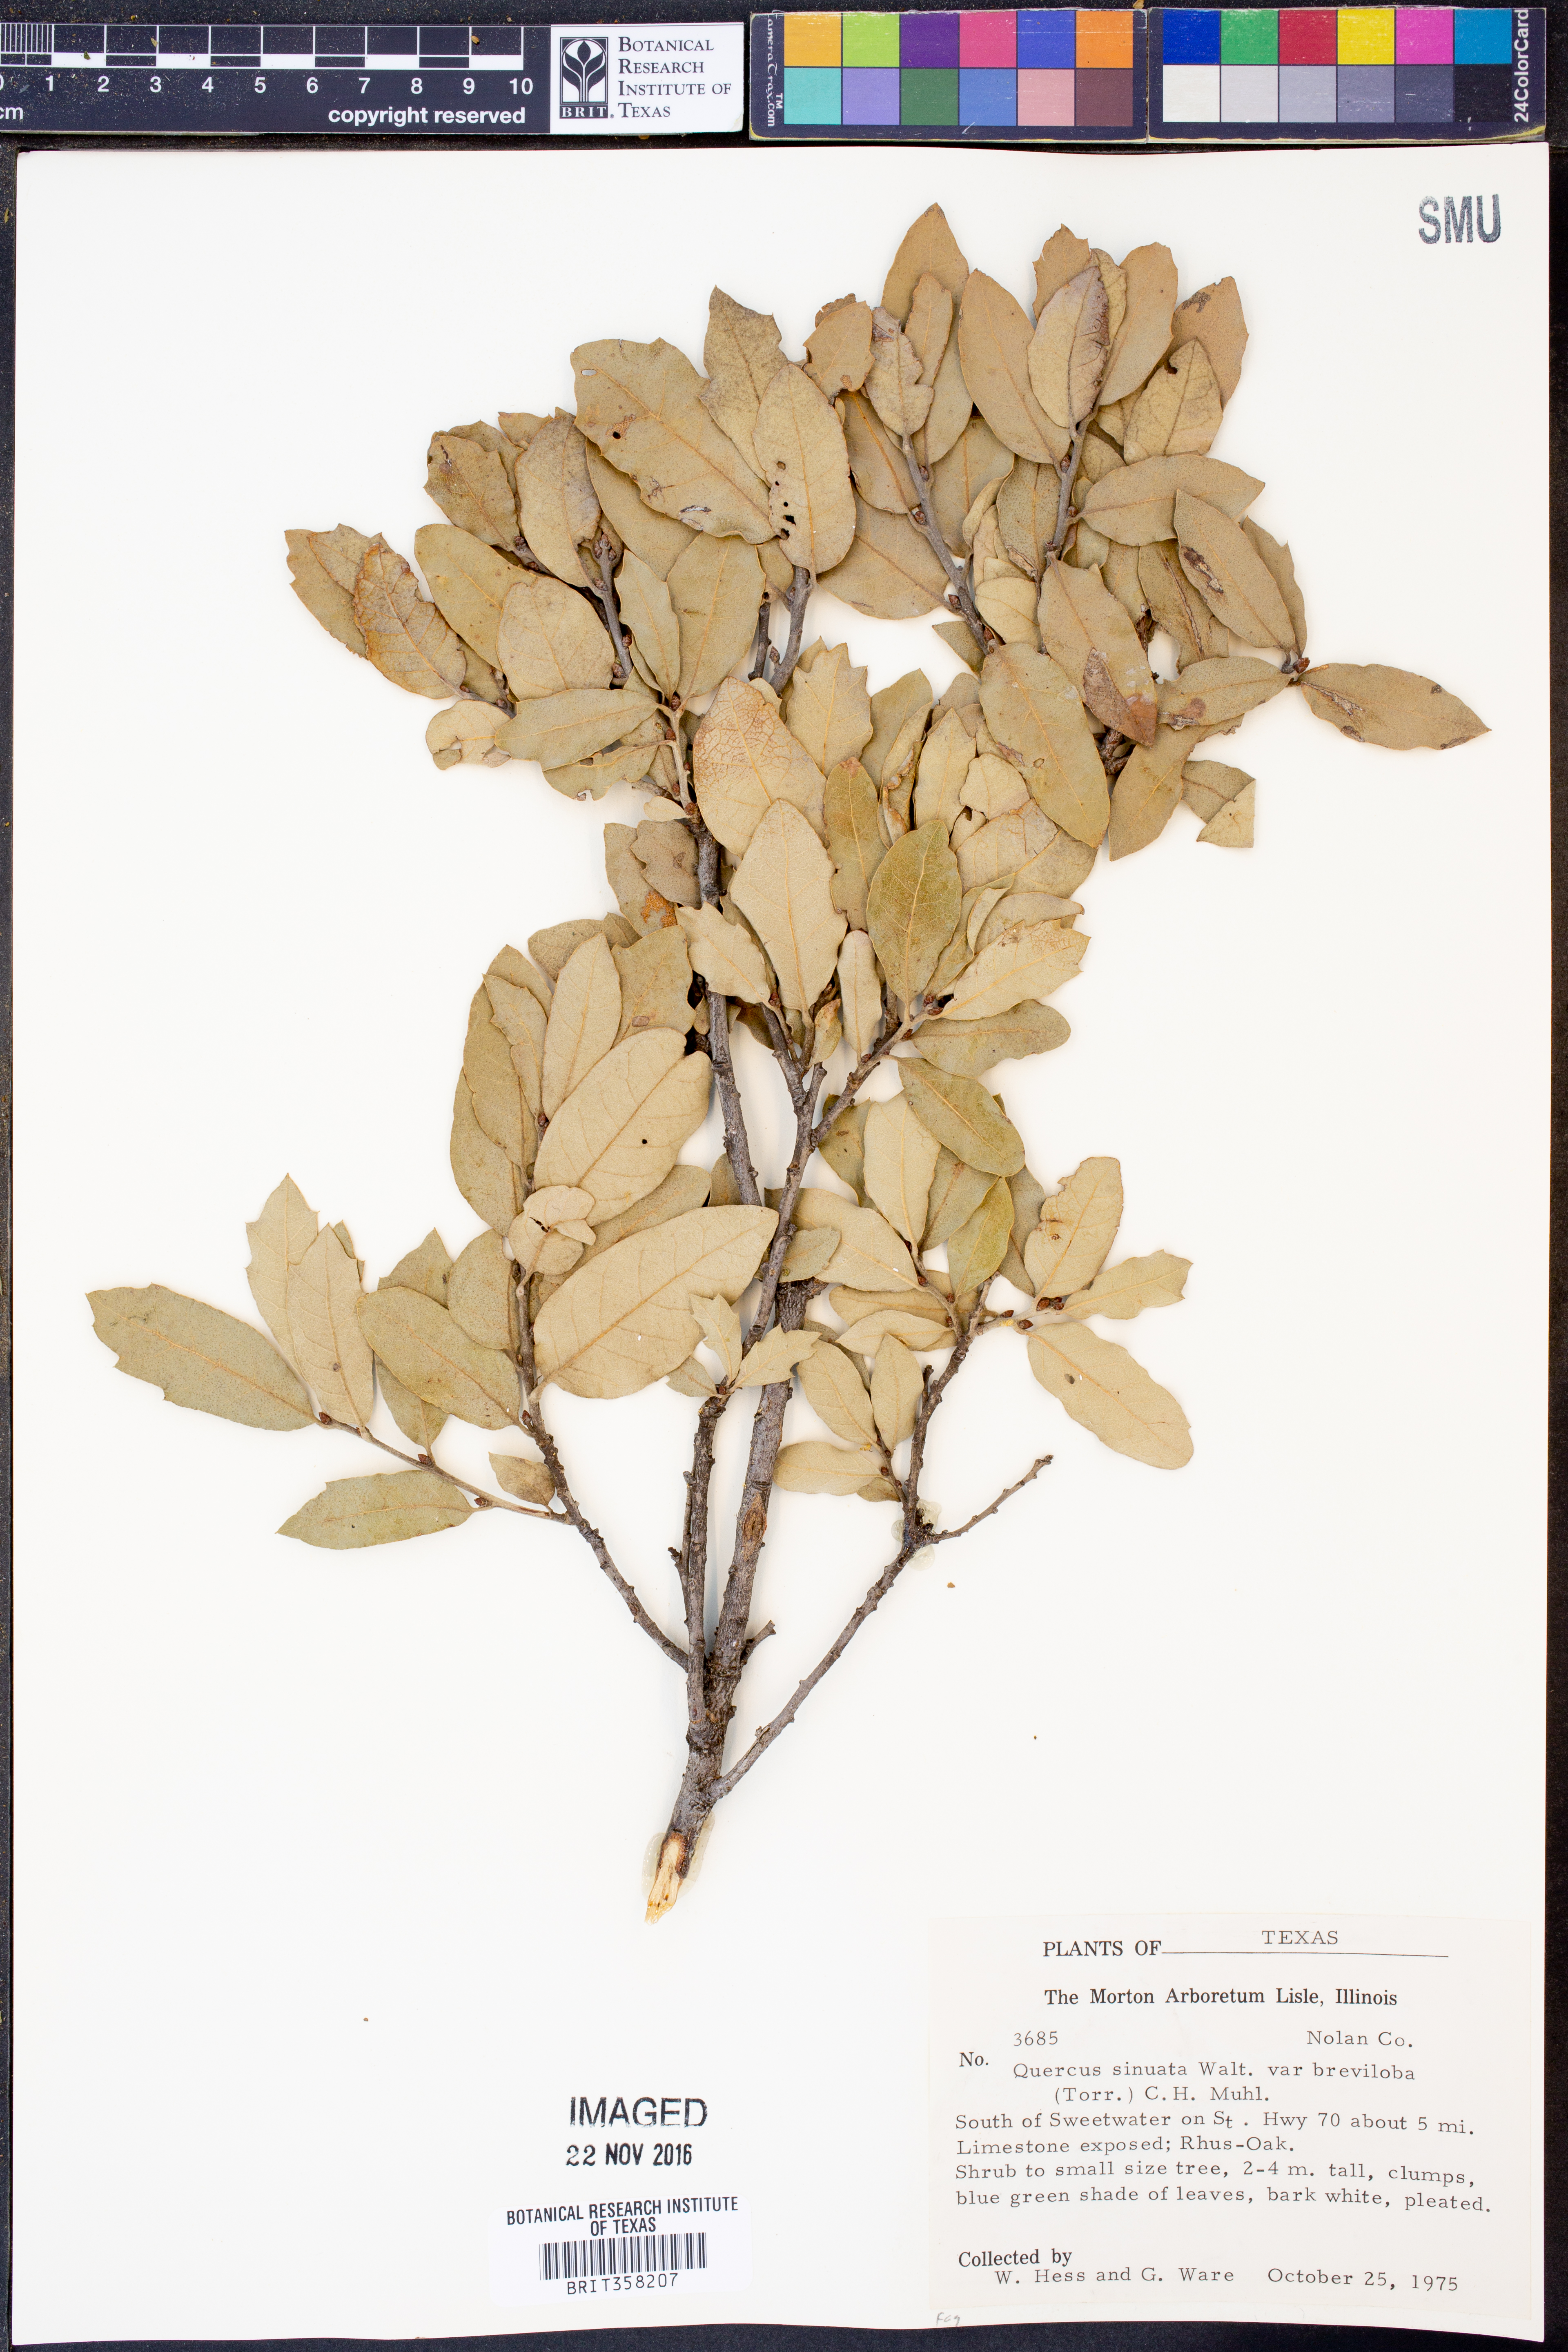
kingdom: Plantae
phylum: Tracheophyta
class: Magnoliopsida
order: Fagales
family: Fagaceae
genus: Quercus
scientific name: Quercus sinuata
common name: Durand oak
